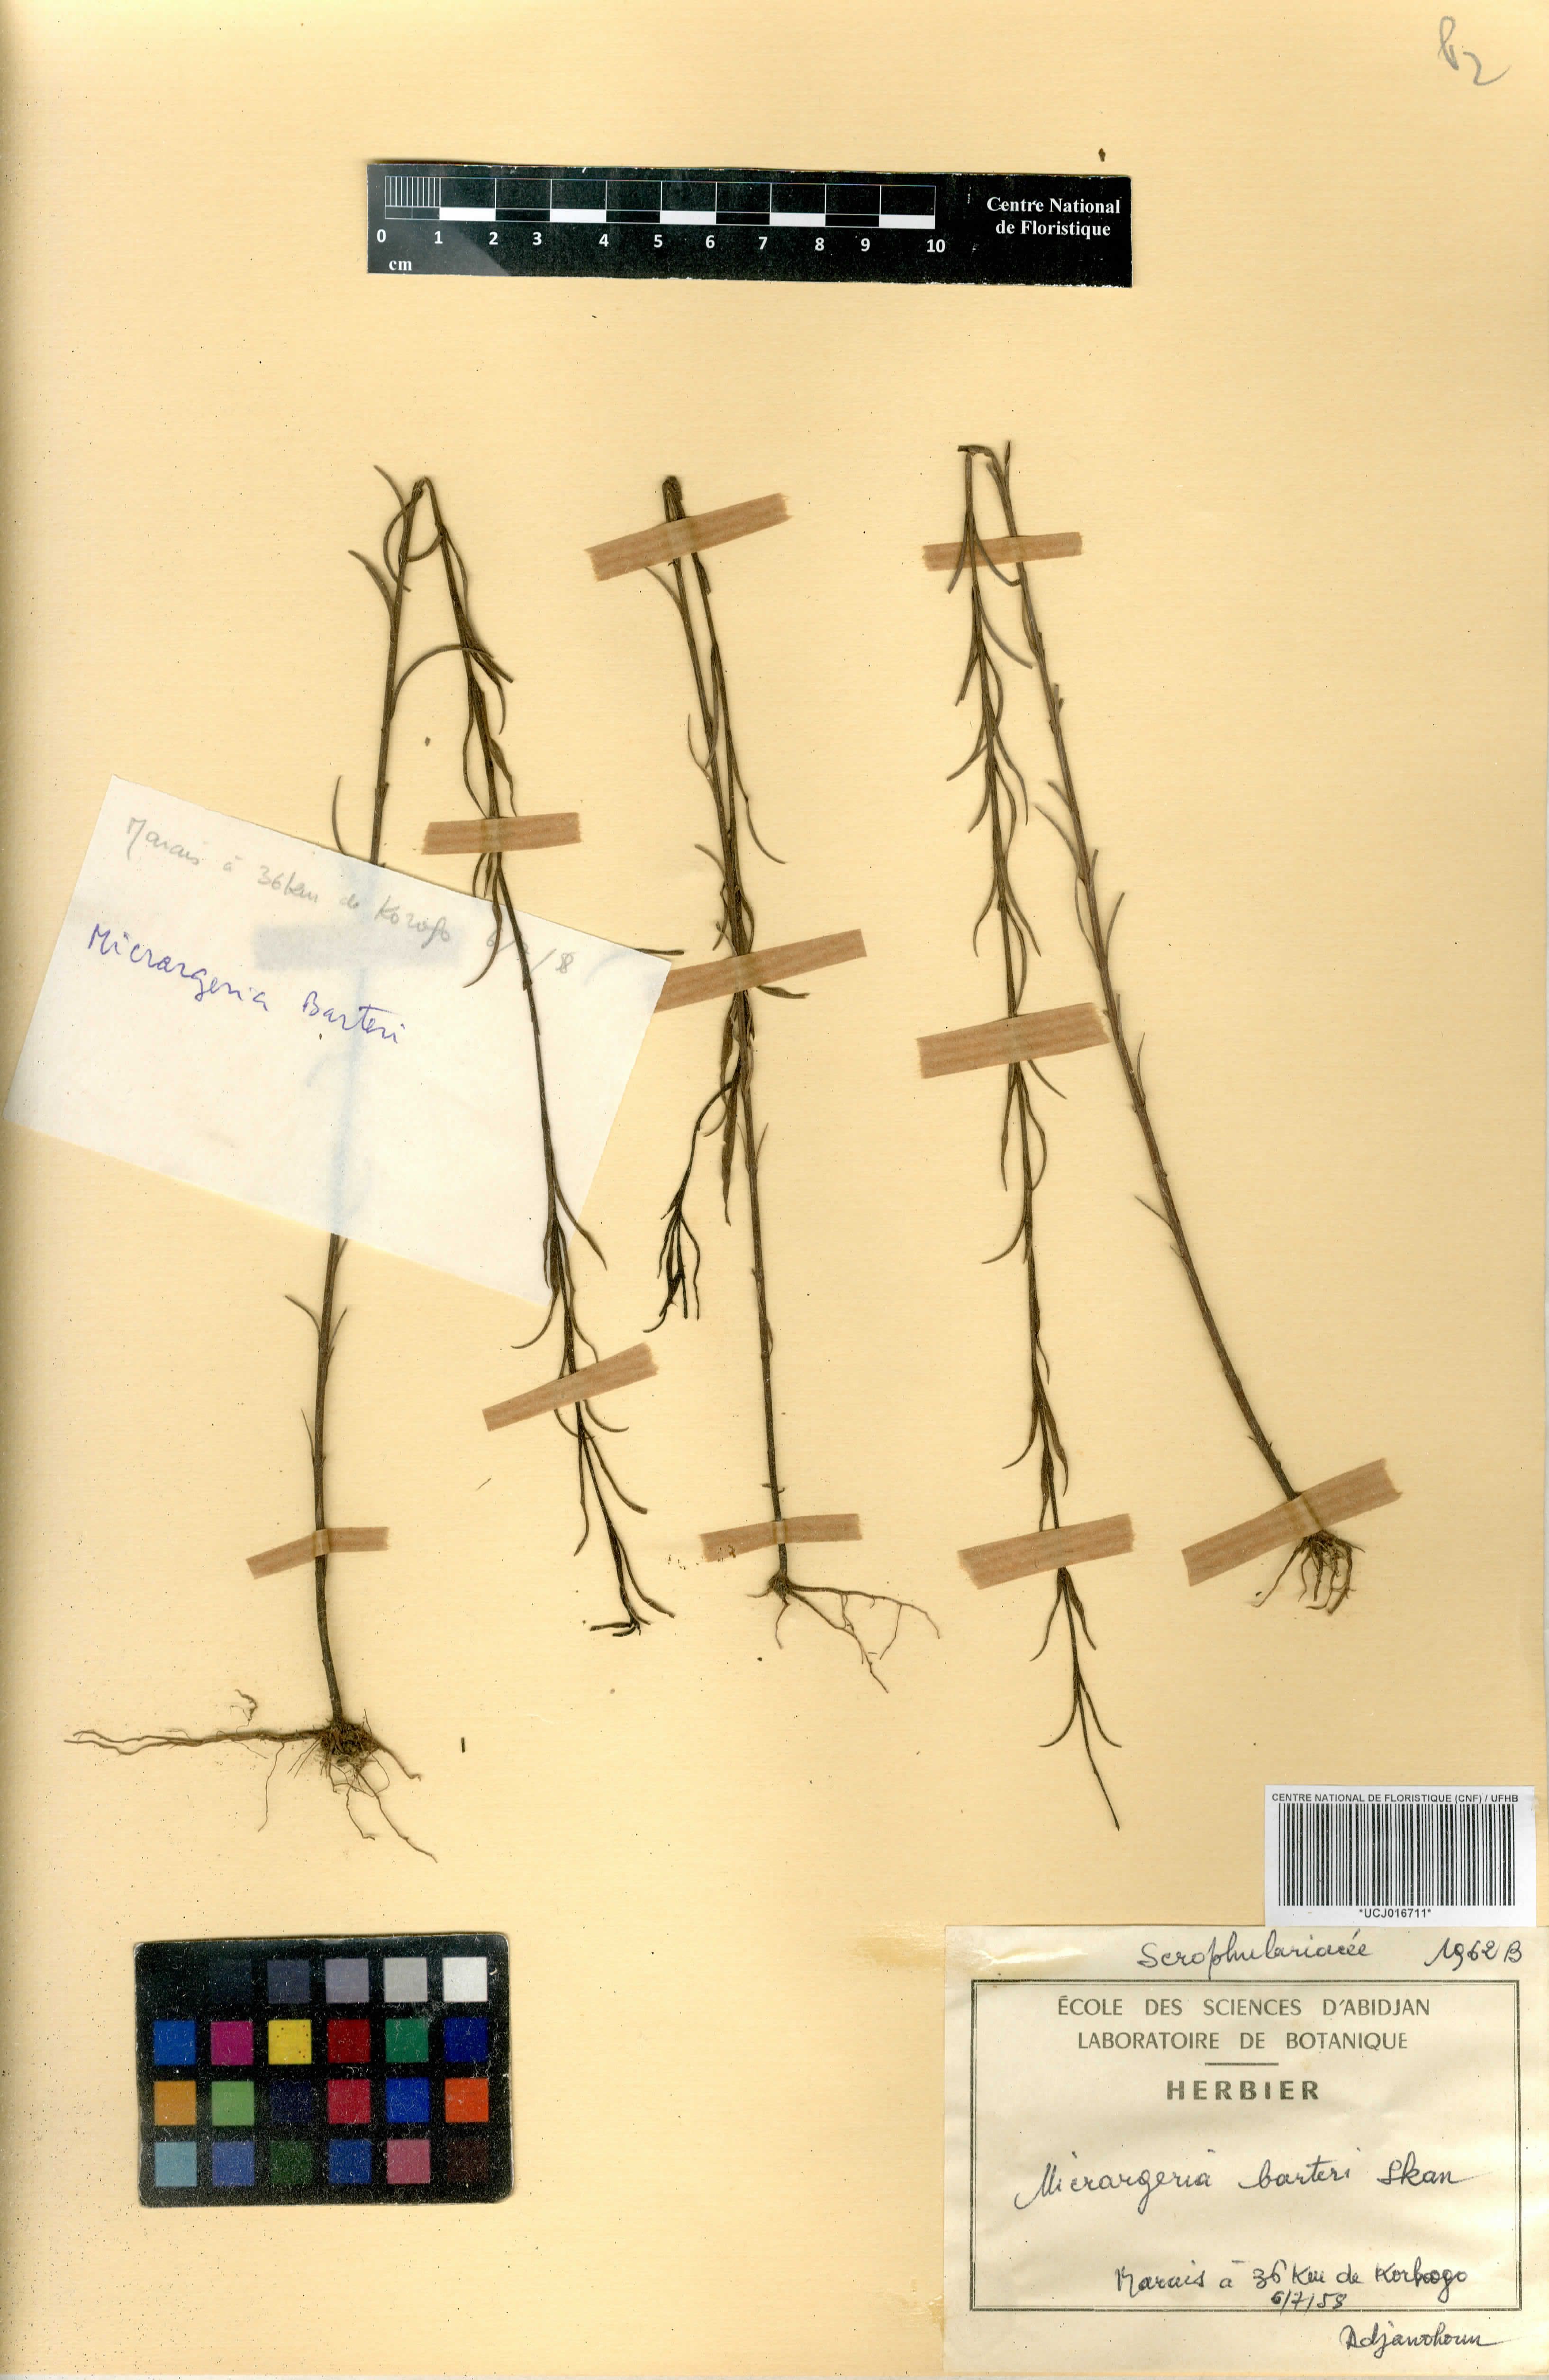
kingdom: Plantae
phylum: Tracheophyta
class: Magnoliopsida
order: Lamiales
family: Orobanchaceae
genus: Micrargeria
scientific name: Micrargeria filiformis
